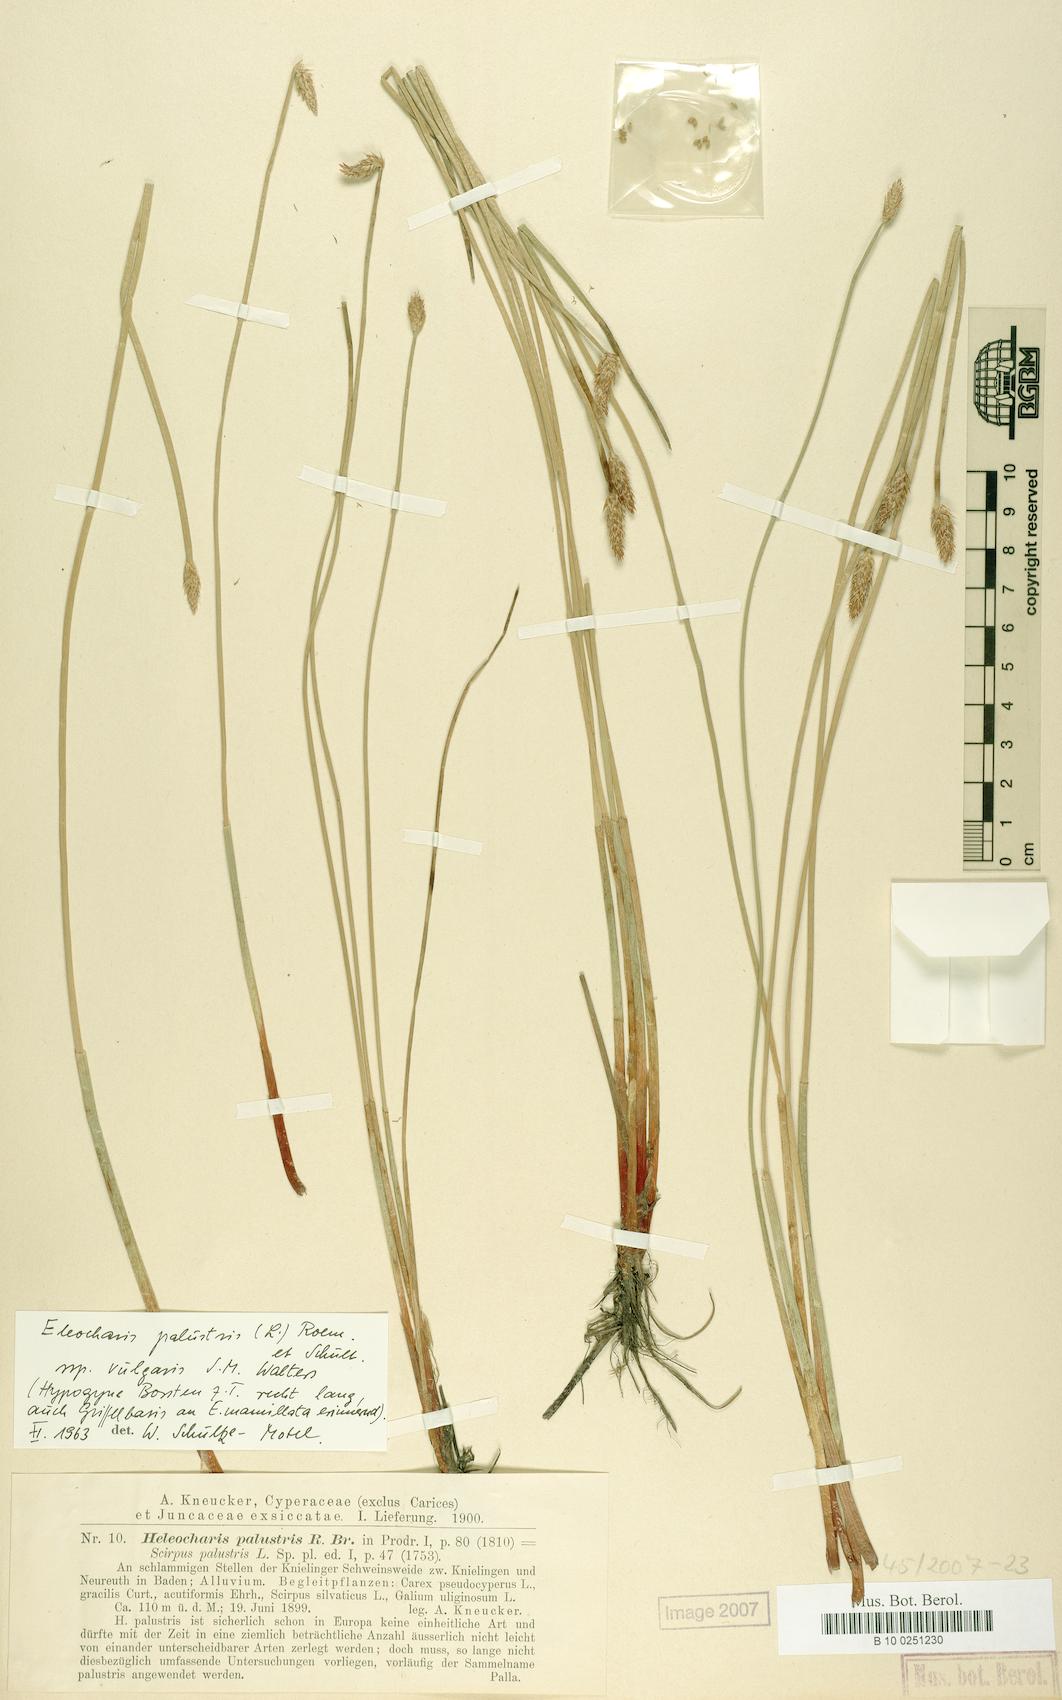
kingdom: Plantae
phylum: Tracheophyta
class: Liliopsida
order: Poales
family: Cyperaceae
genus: Eleocharis
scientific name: Eleocharis palustris
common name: Common spike-rush
